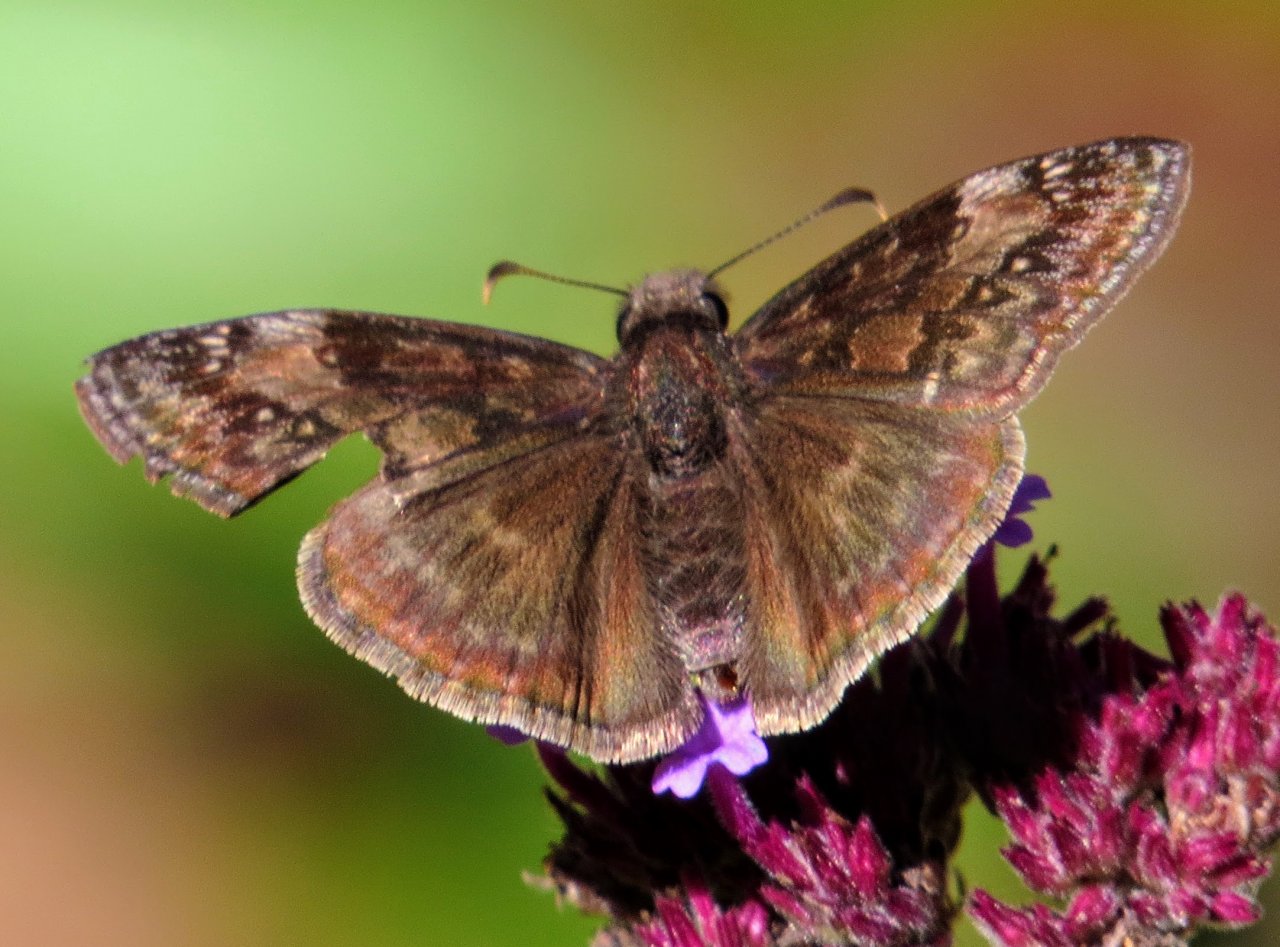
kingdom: Animalia
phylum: Arthropoda
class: Insecta
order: Lepidoptera
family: Hesperiidae
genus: Gesta
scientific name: Gesta
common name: Wild Indigo Duskywing
